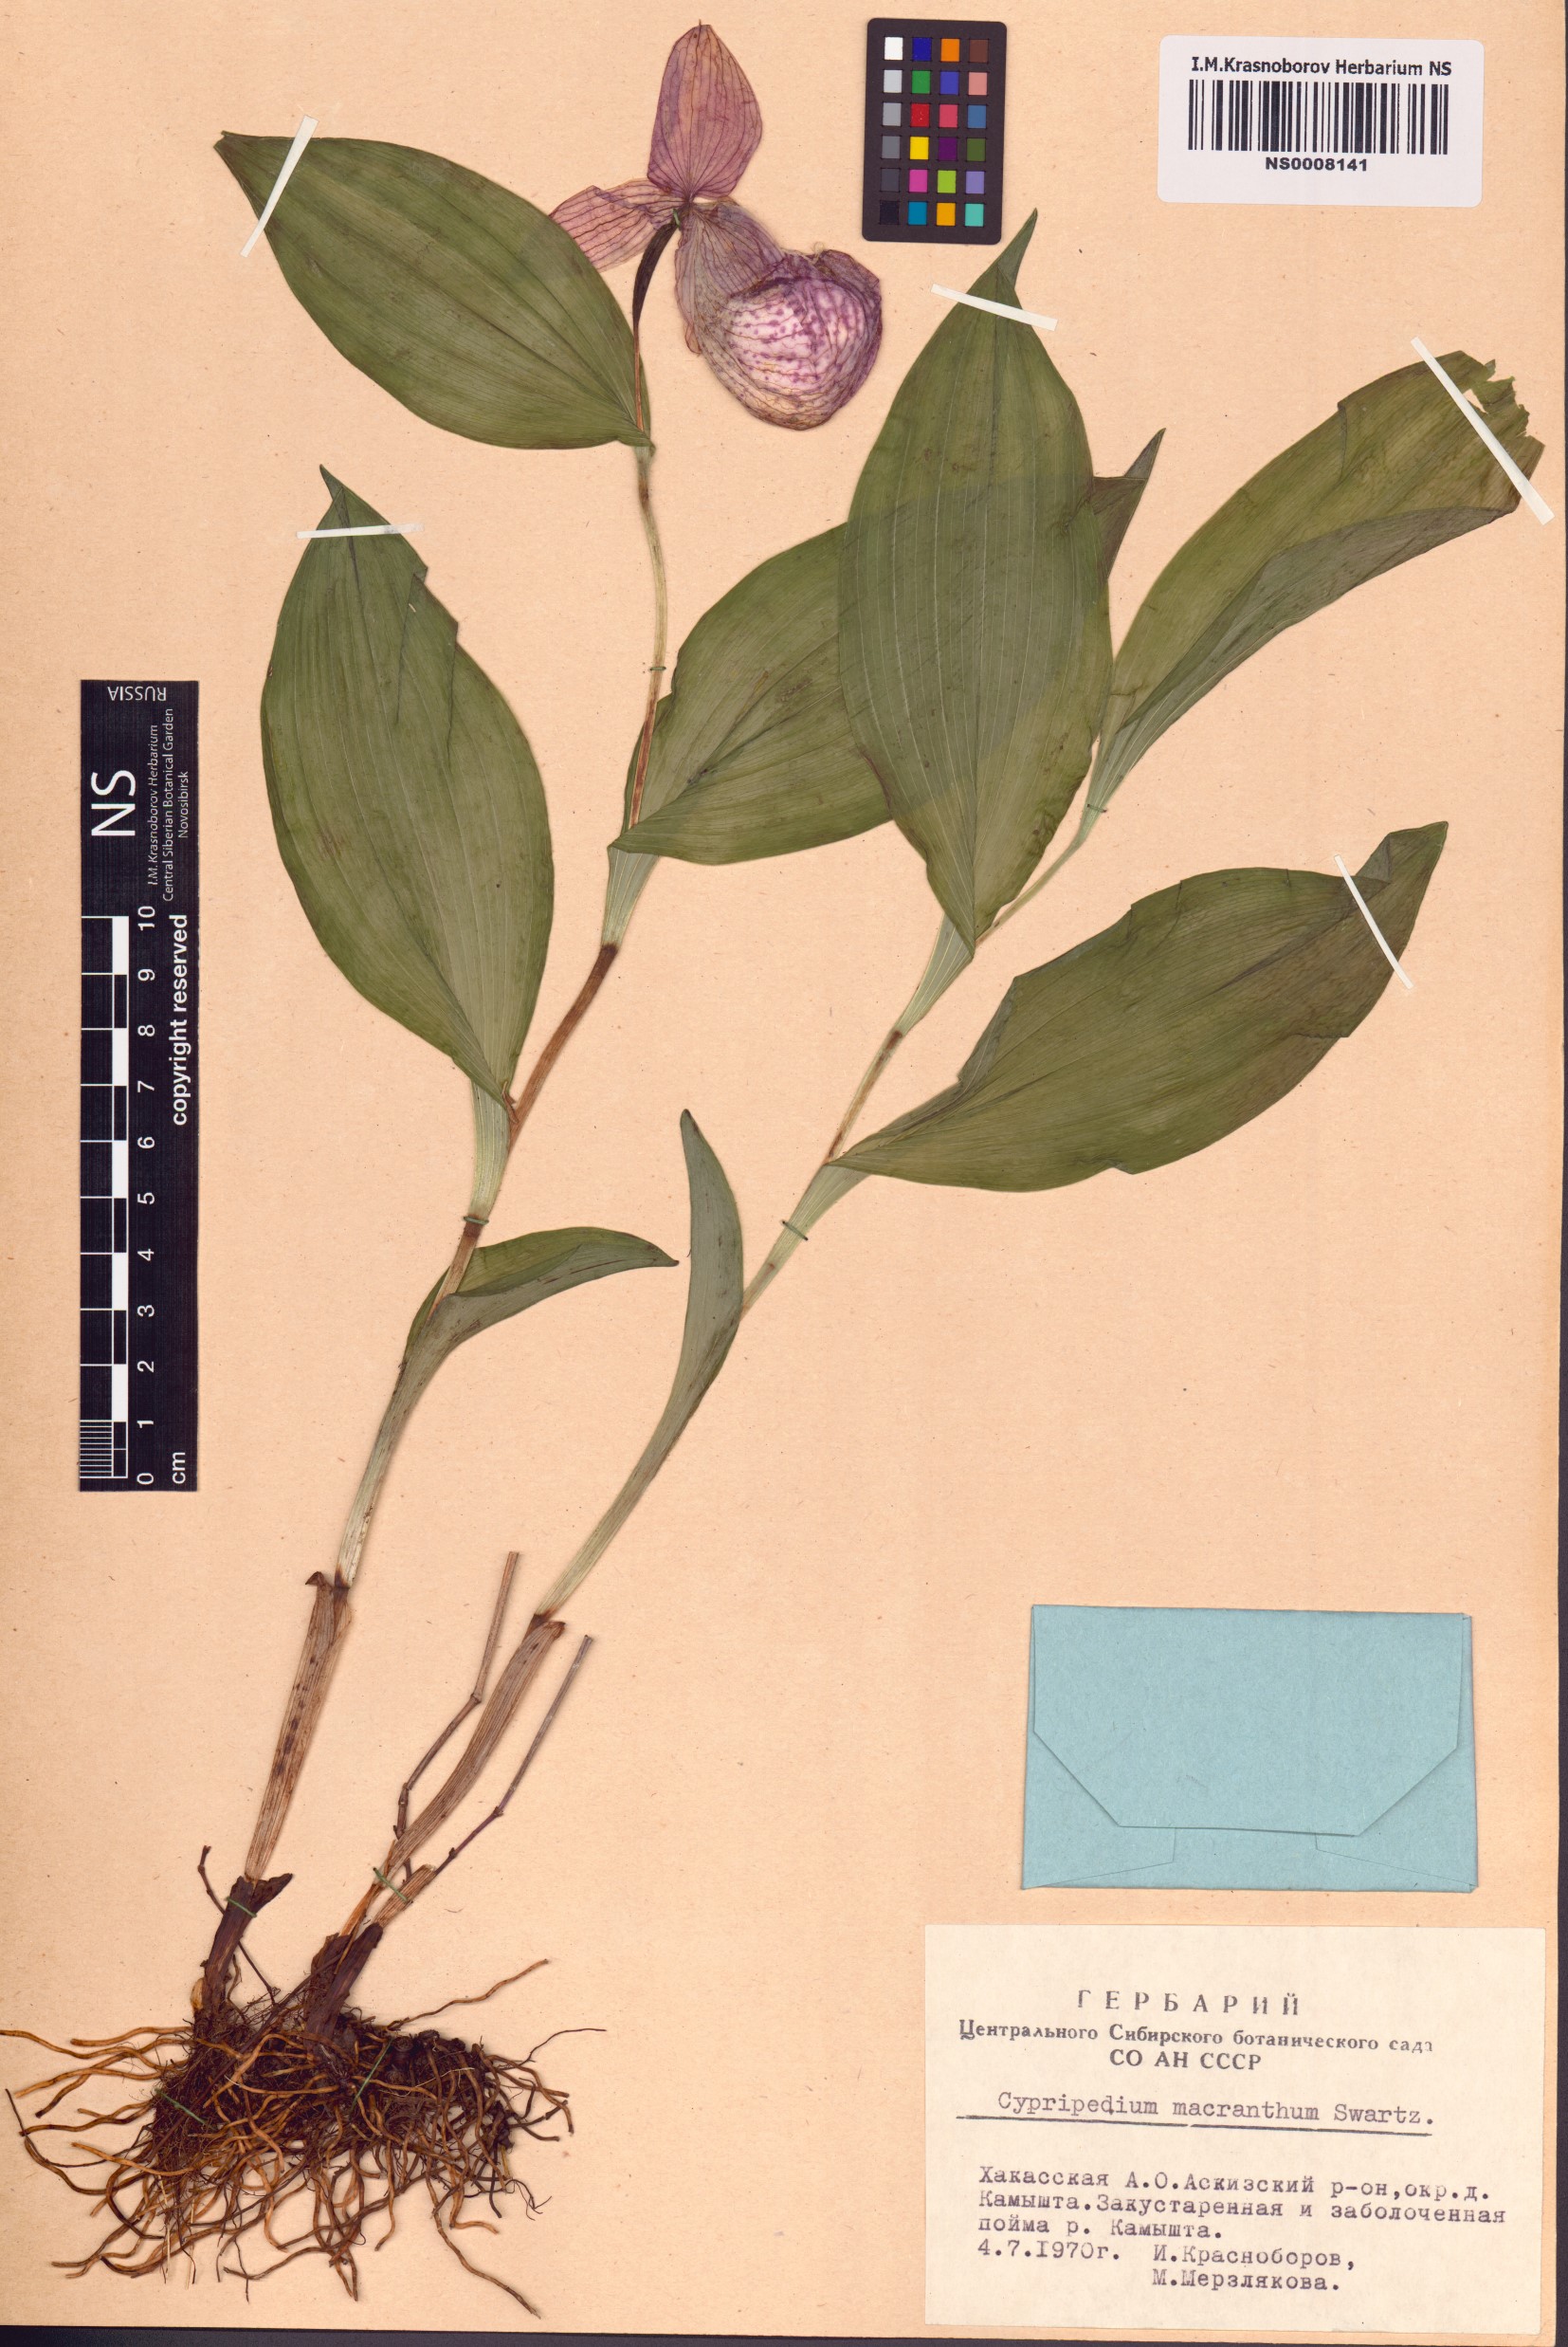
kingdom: Plantae
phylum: Tracheophyta
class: Liliopsida
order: Asparagales
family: Orchidaceae
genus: Cypripedium
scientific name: Cypripedium macranthos
